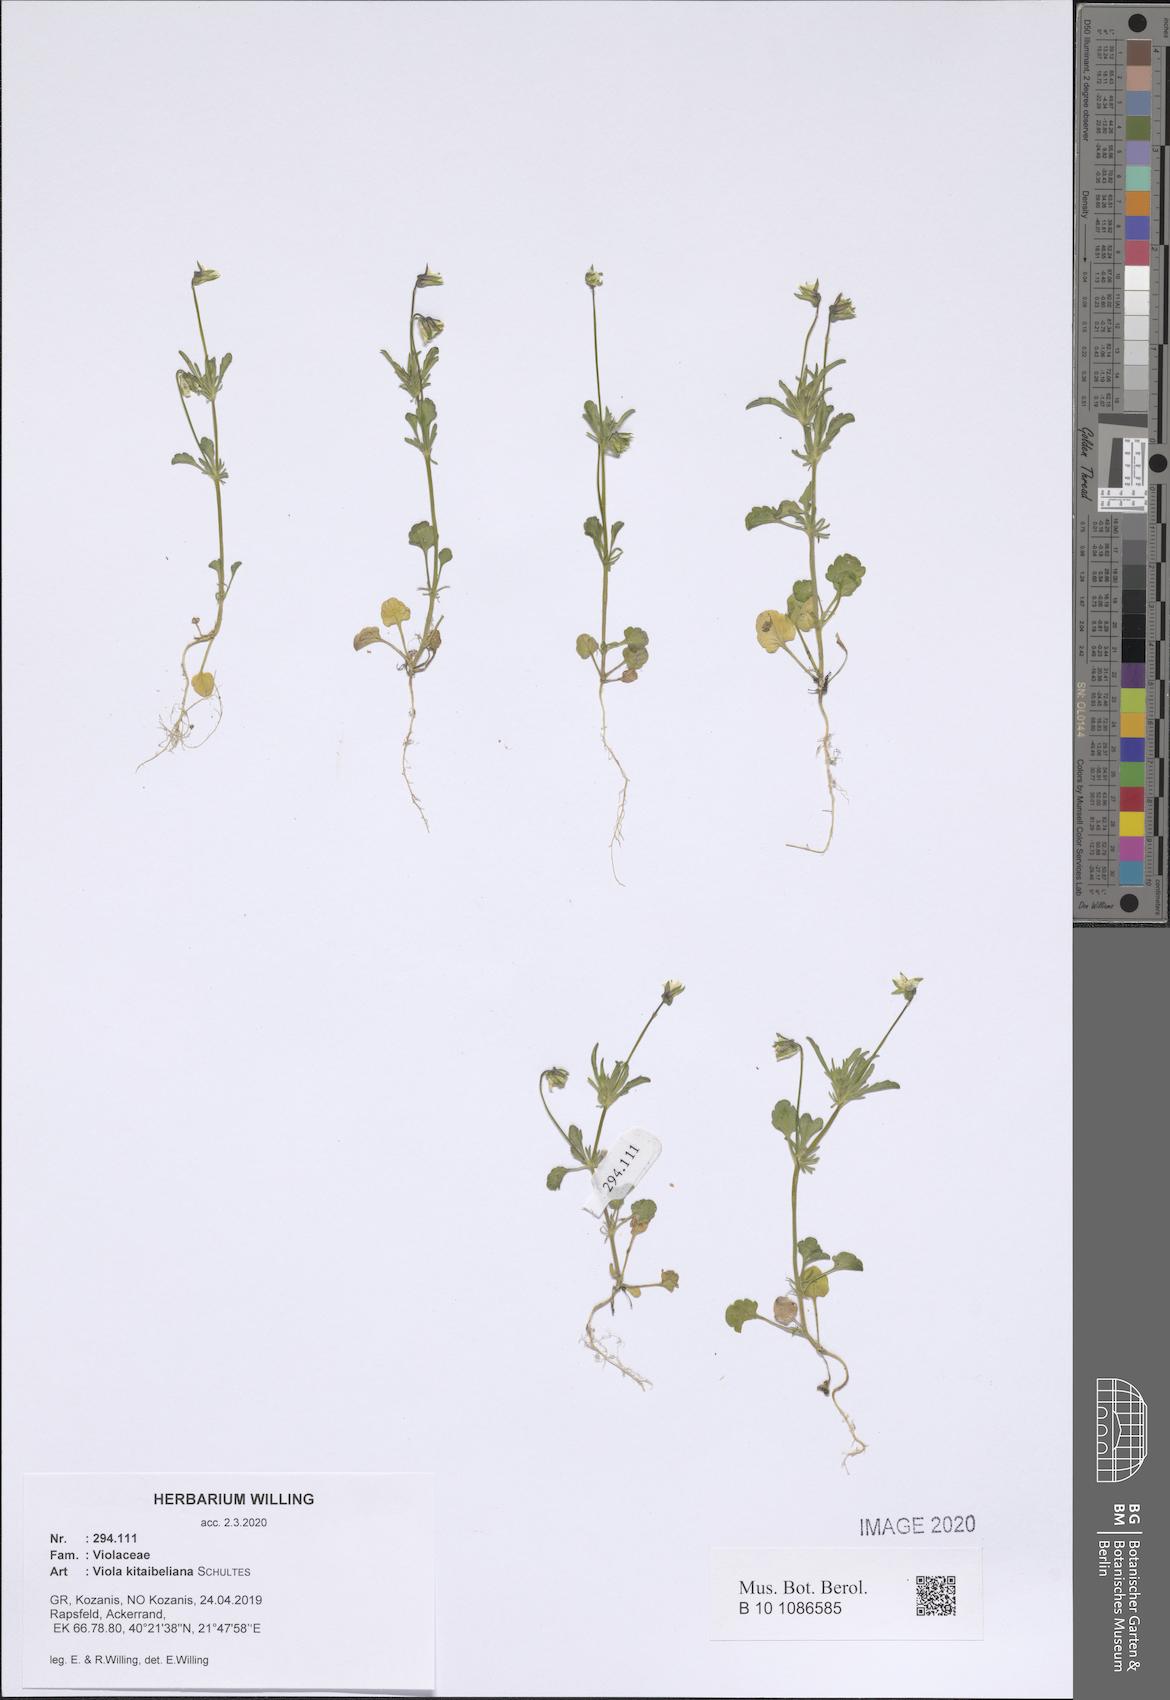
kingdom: Plantae
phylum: Tracheophyta
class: Magnoliopsida
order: Malpighiales
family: Violaceae
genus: Viola
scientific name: Viola kitaibeliana
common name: Dwarf pansy
